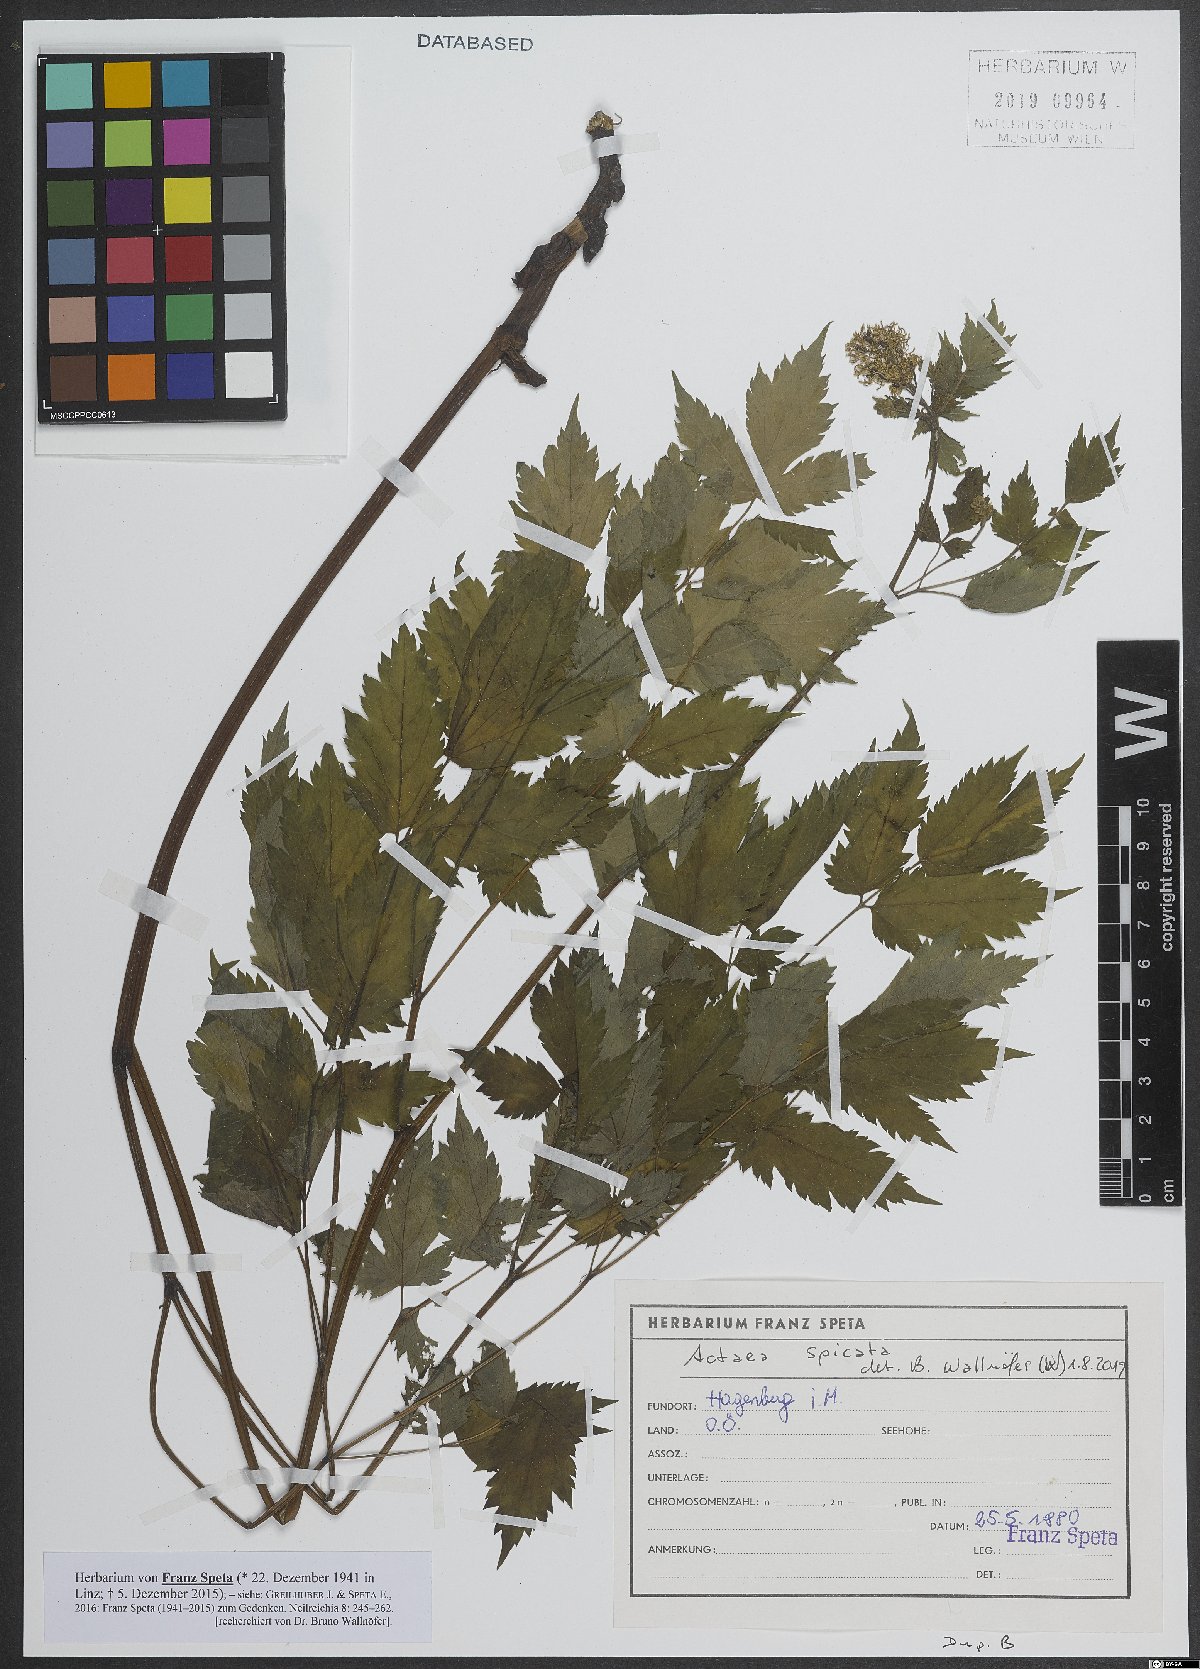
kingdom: Plantae
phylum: Tracheophyta
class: Magnoliopsida
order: Ranunculales
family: Ranunculaceae
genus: Actaea
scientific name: Actaea spicata
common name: Baneberry
